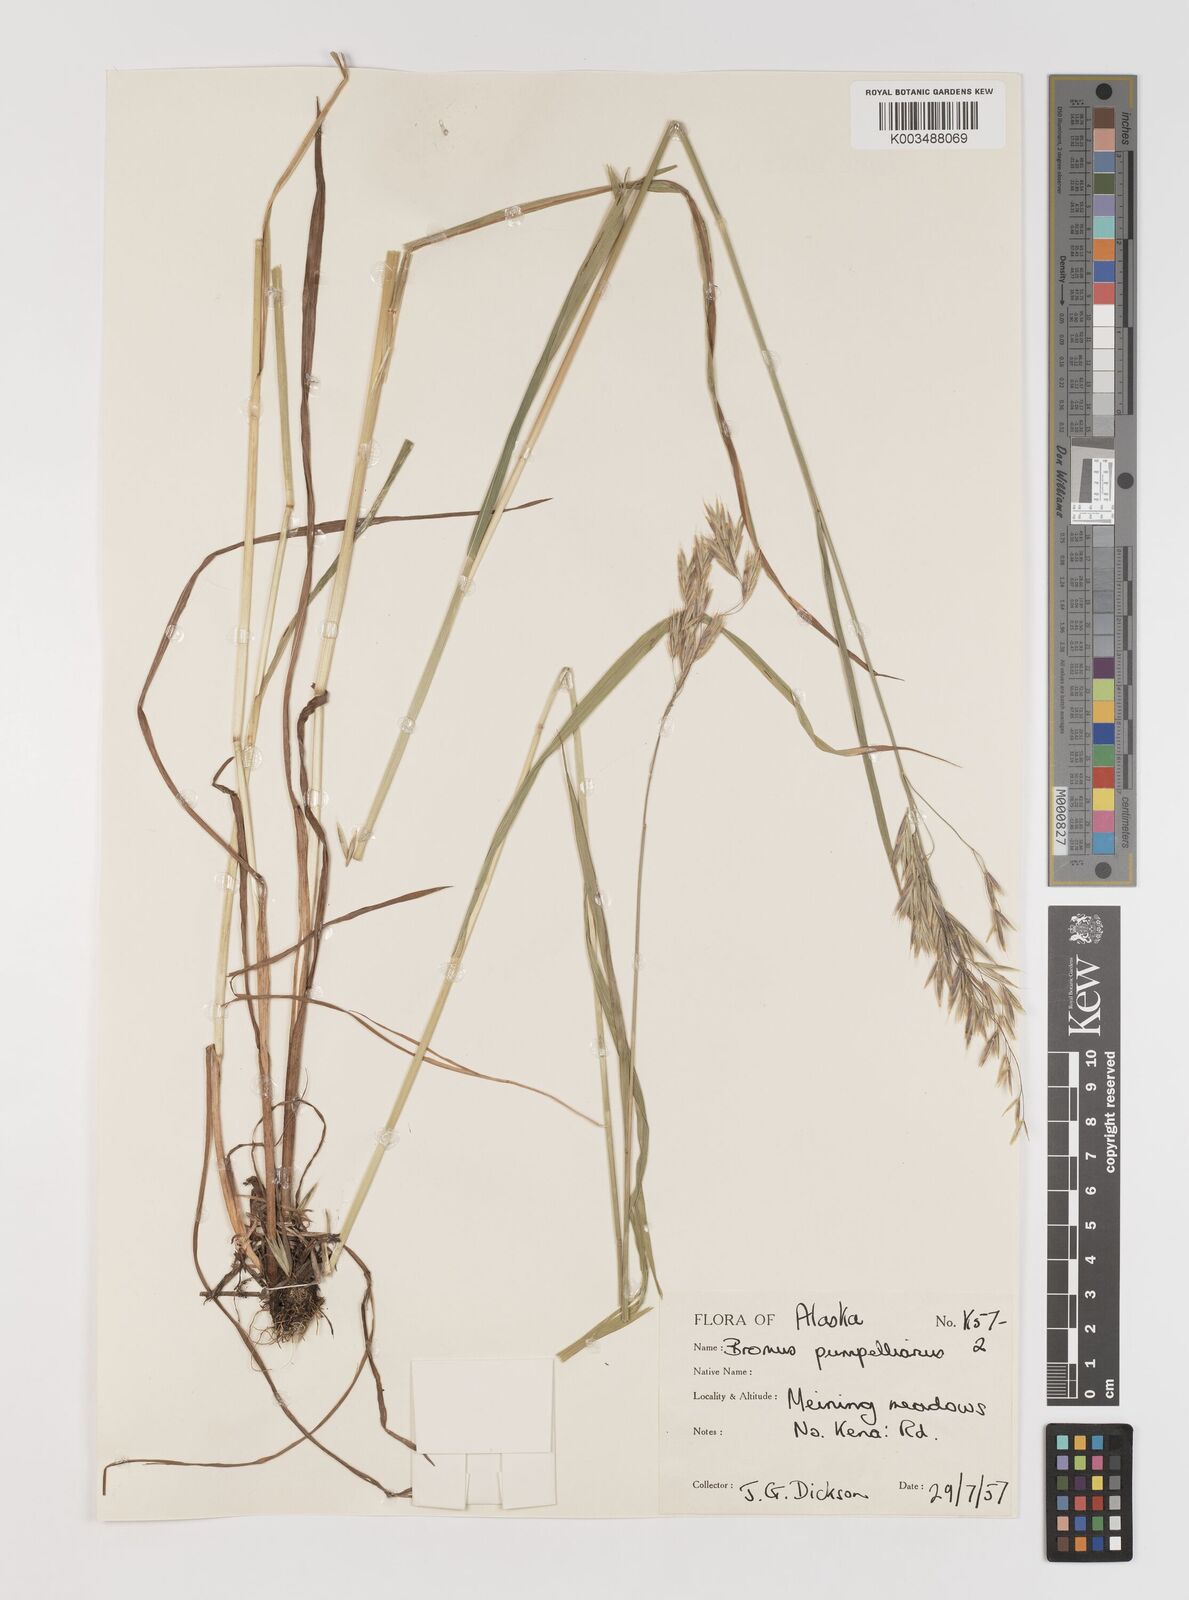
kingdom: Plantae
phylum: Tracheophyta
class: Liliopsida
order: Poales
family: Poaceae
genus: Bromus
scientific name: Bromus pumpellianus
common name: Pumpelly's brome
